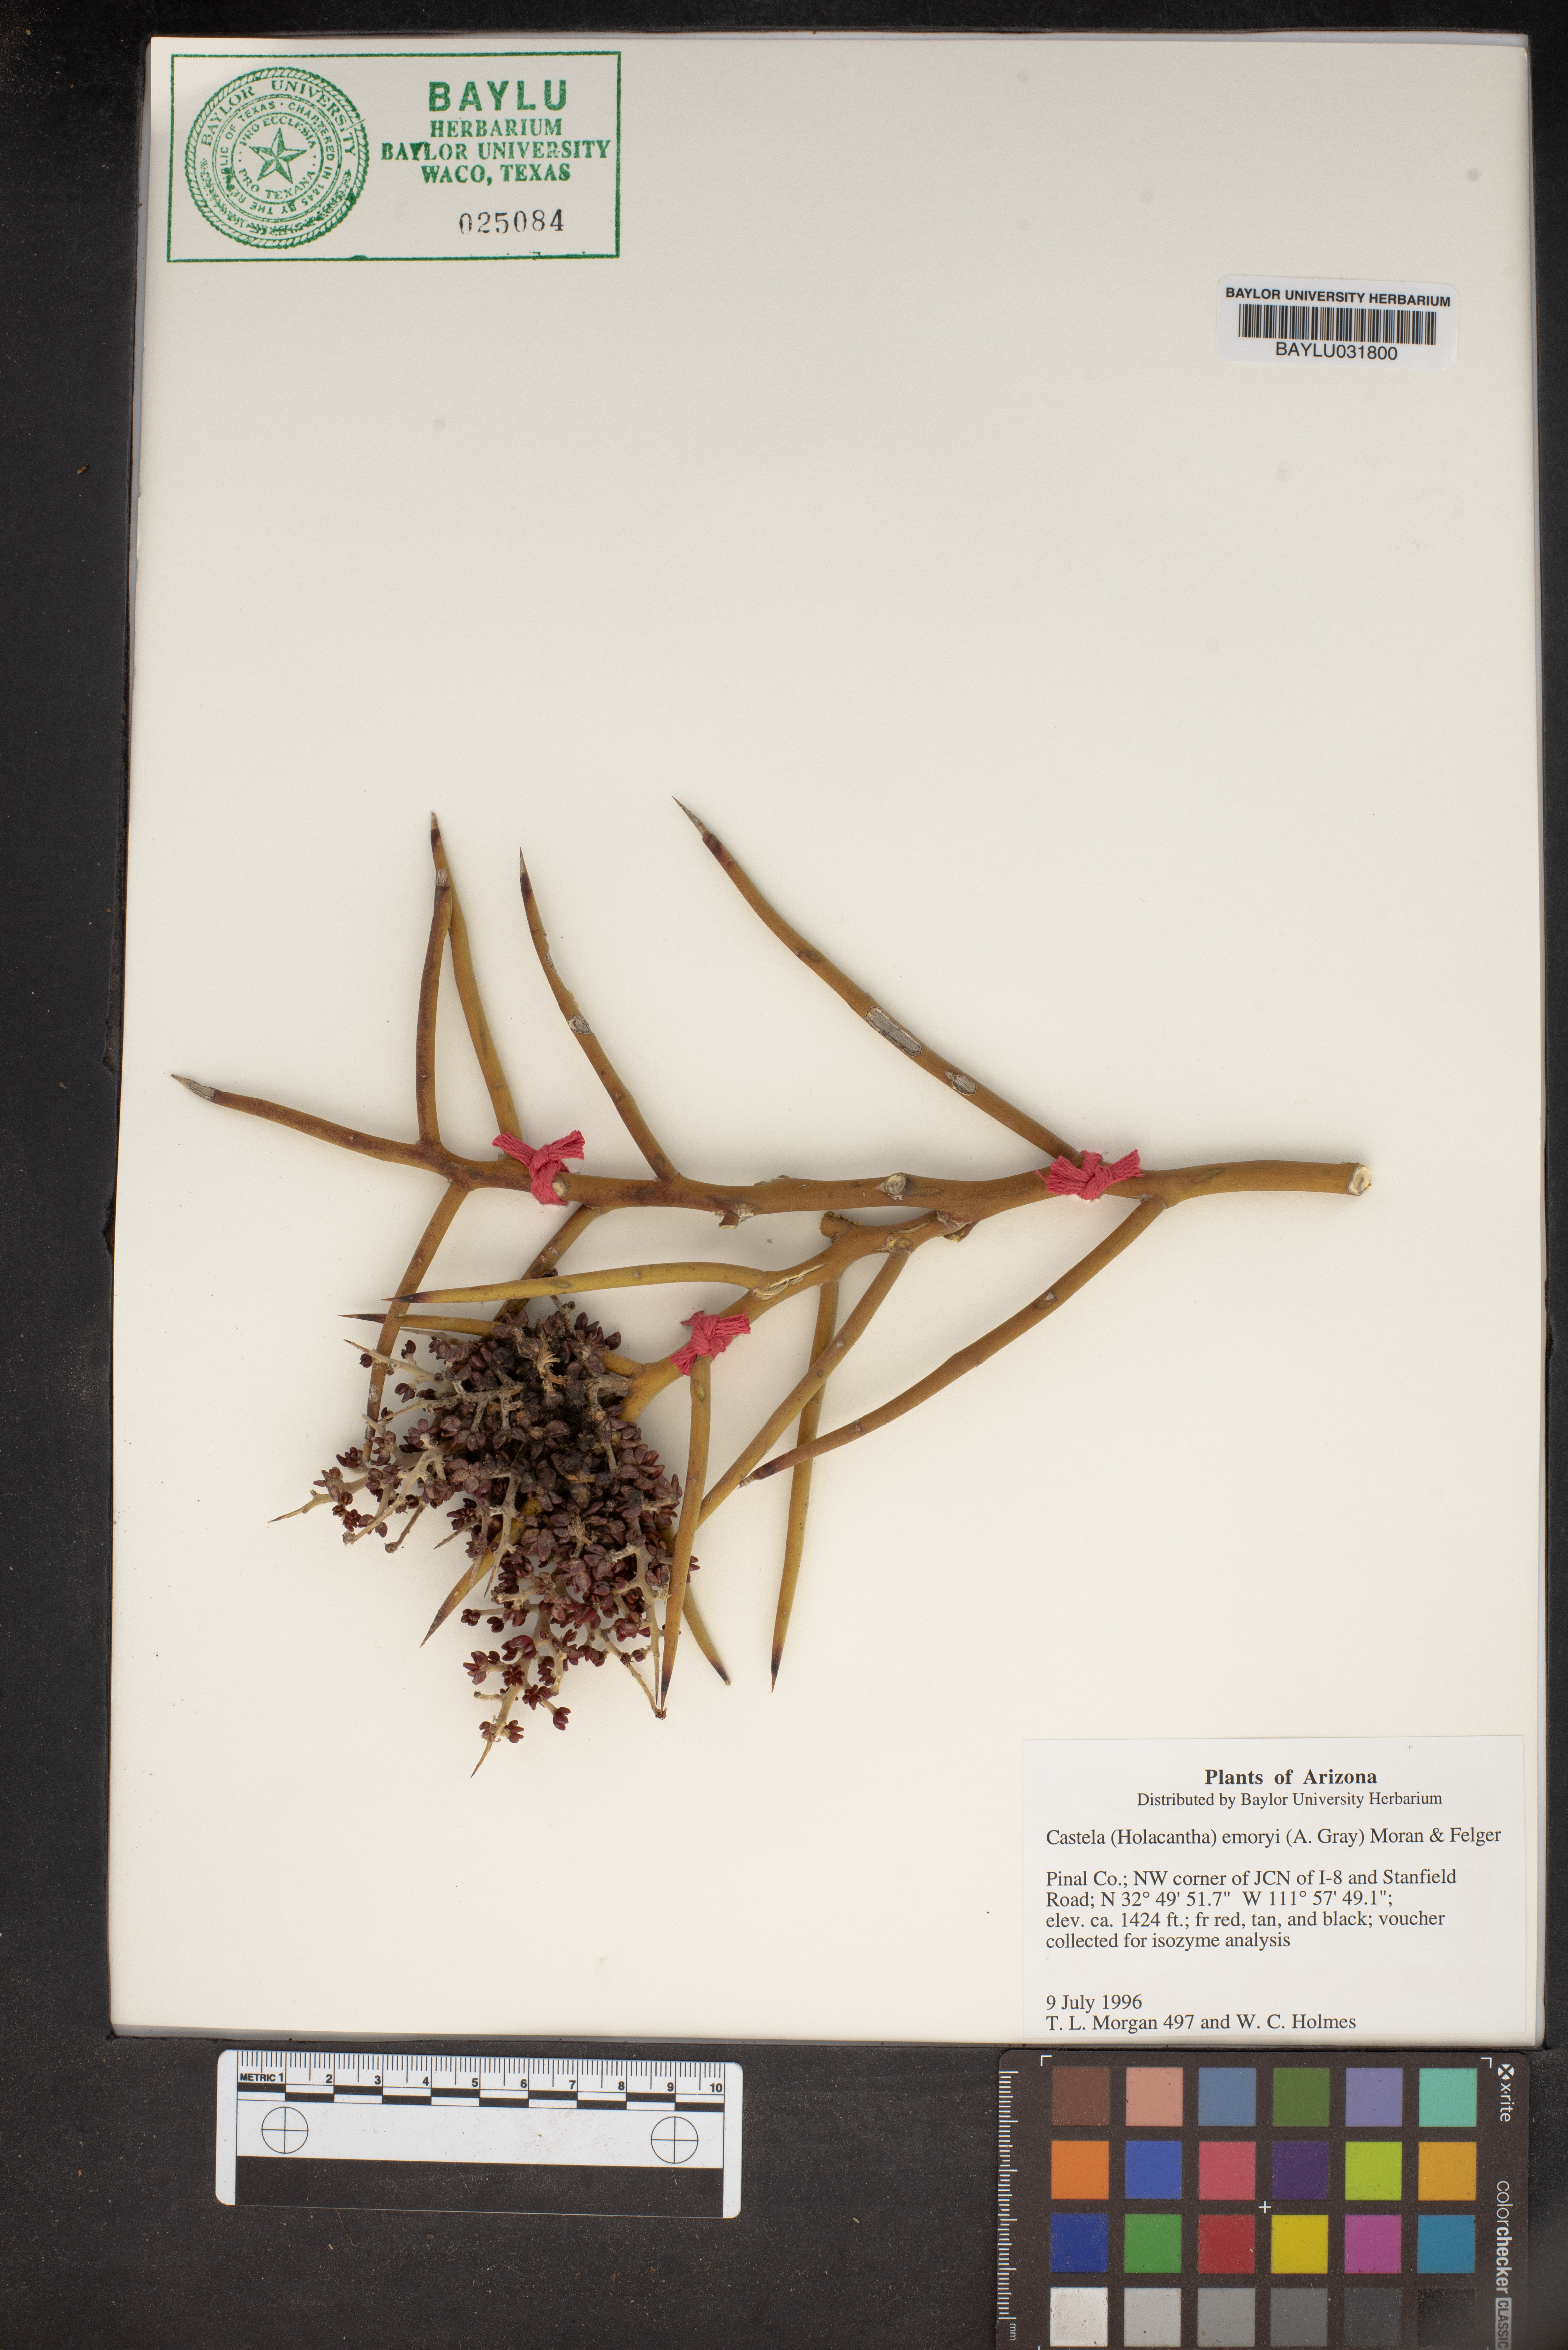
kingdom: Plantae
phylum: Tracheophyta
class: Magnoliopsida
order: Sapindales
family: Simaroubaceae
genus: Holacantha
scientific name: Holacantha emoryi
